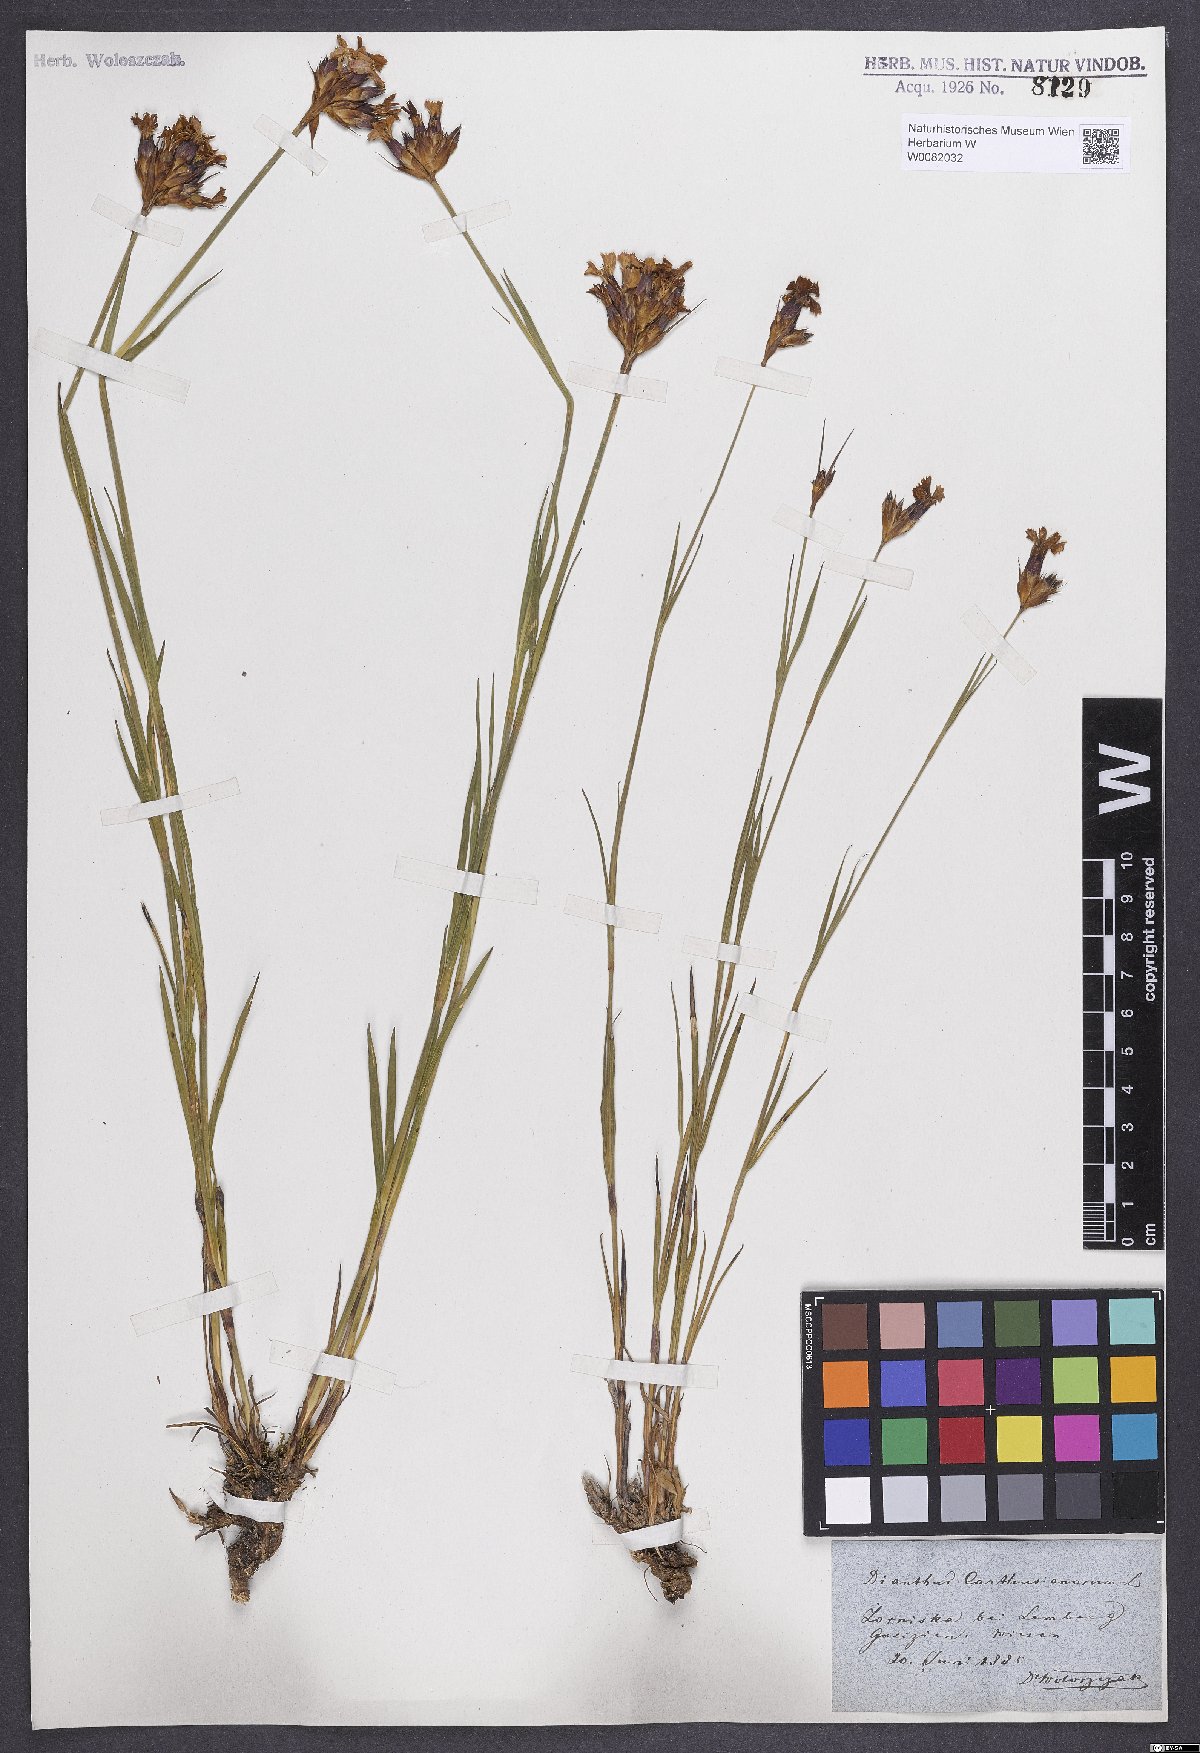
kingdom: Plantae
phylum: Tracheophyta
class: Magnoliopsida
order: Caryophyllales
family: Caryophyllaceae
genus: Dianthus
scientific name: Dianthus carthusianorum
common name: Carthusian pink
